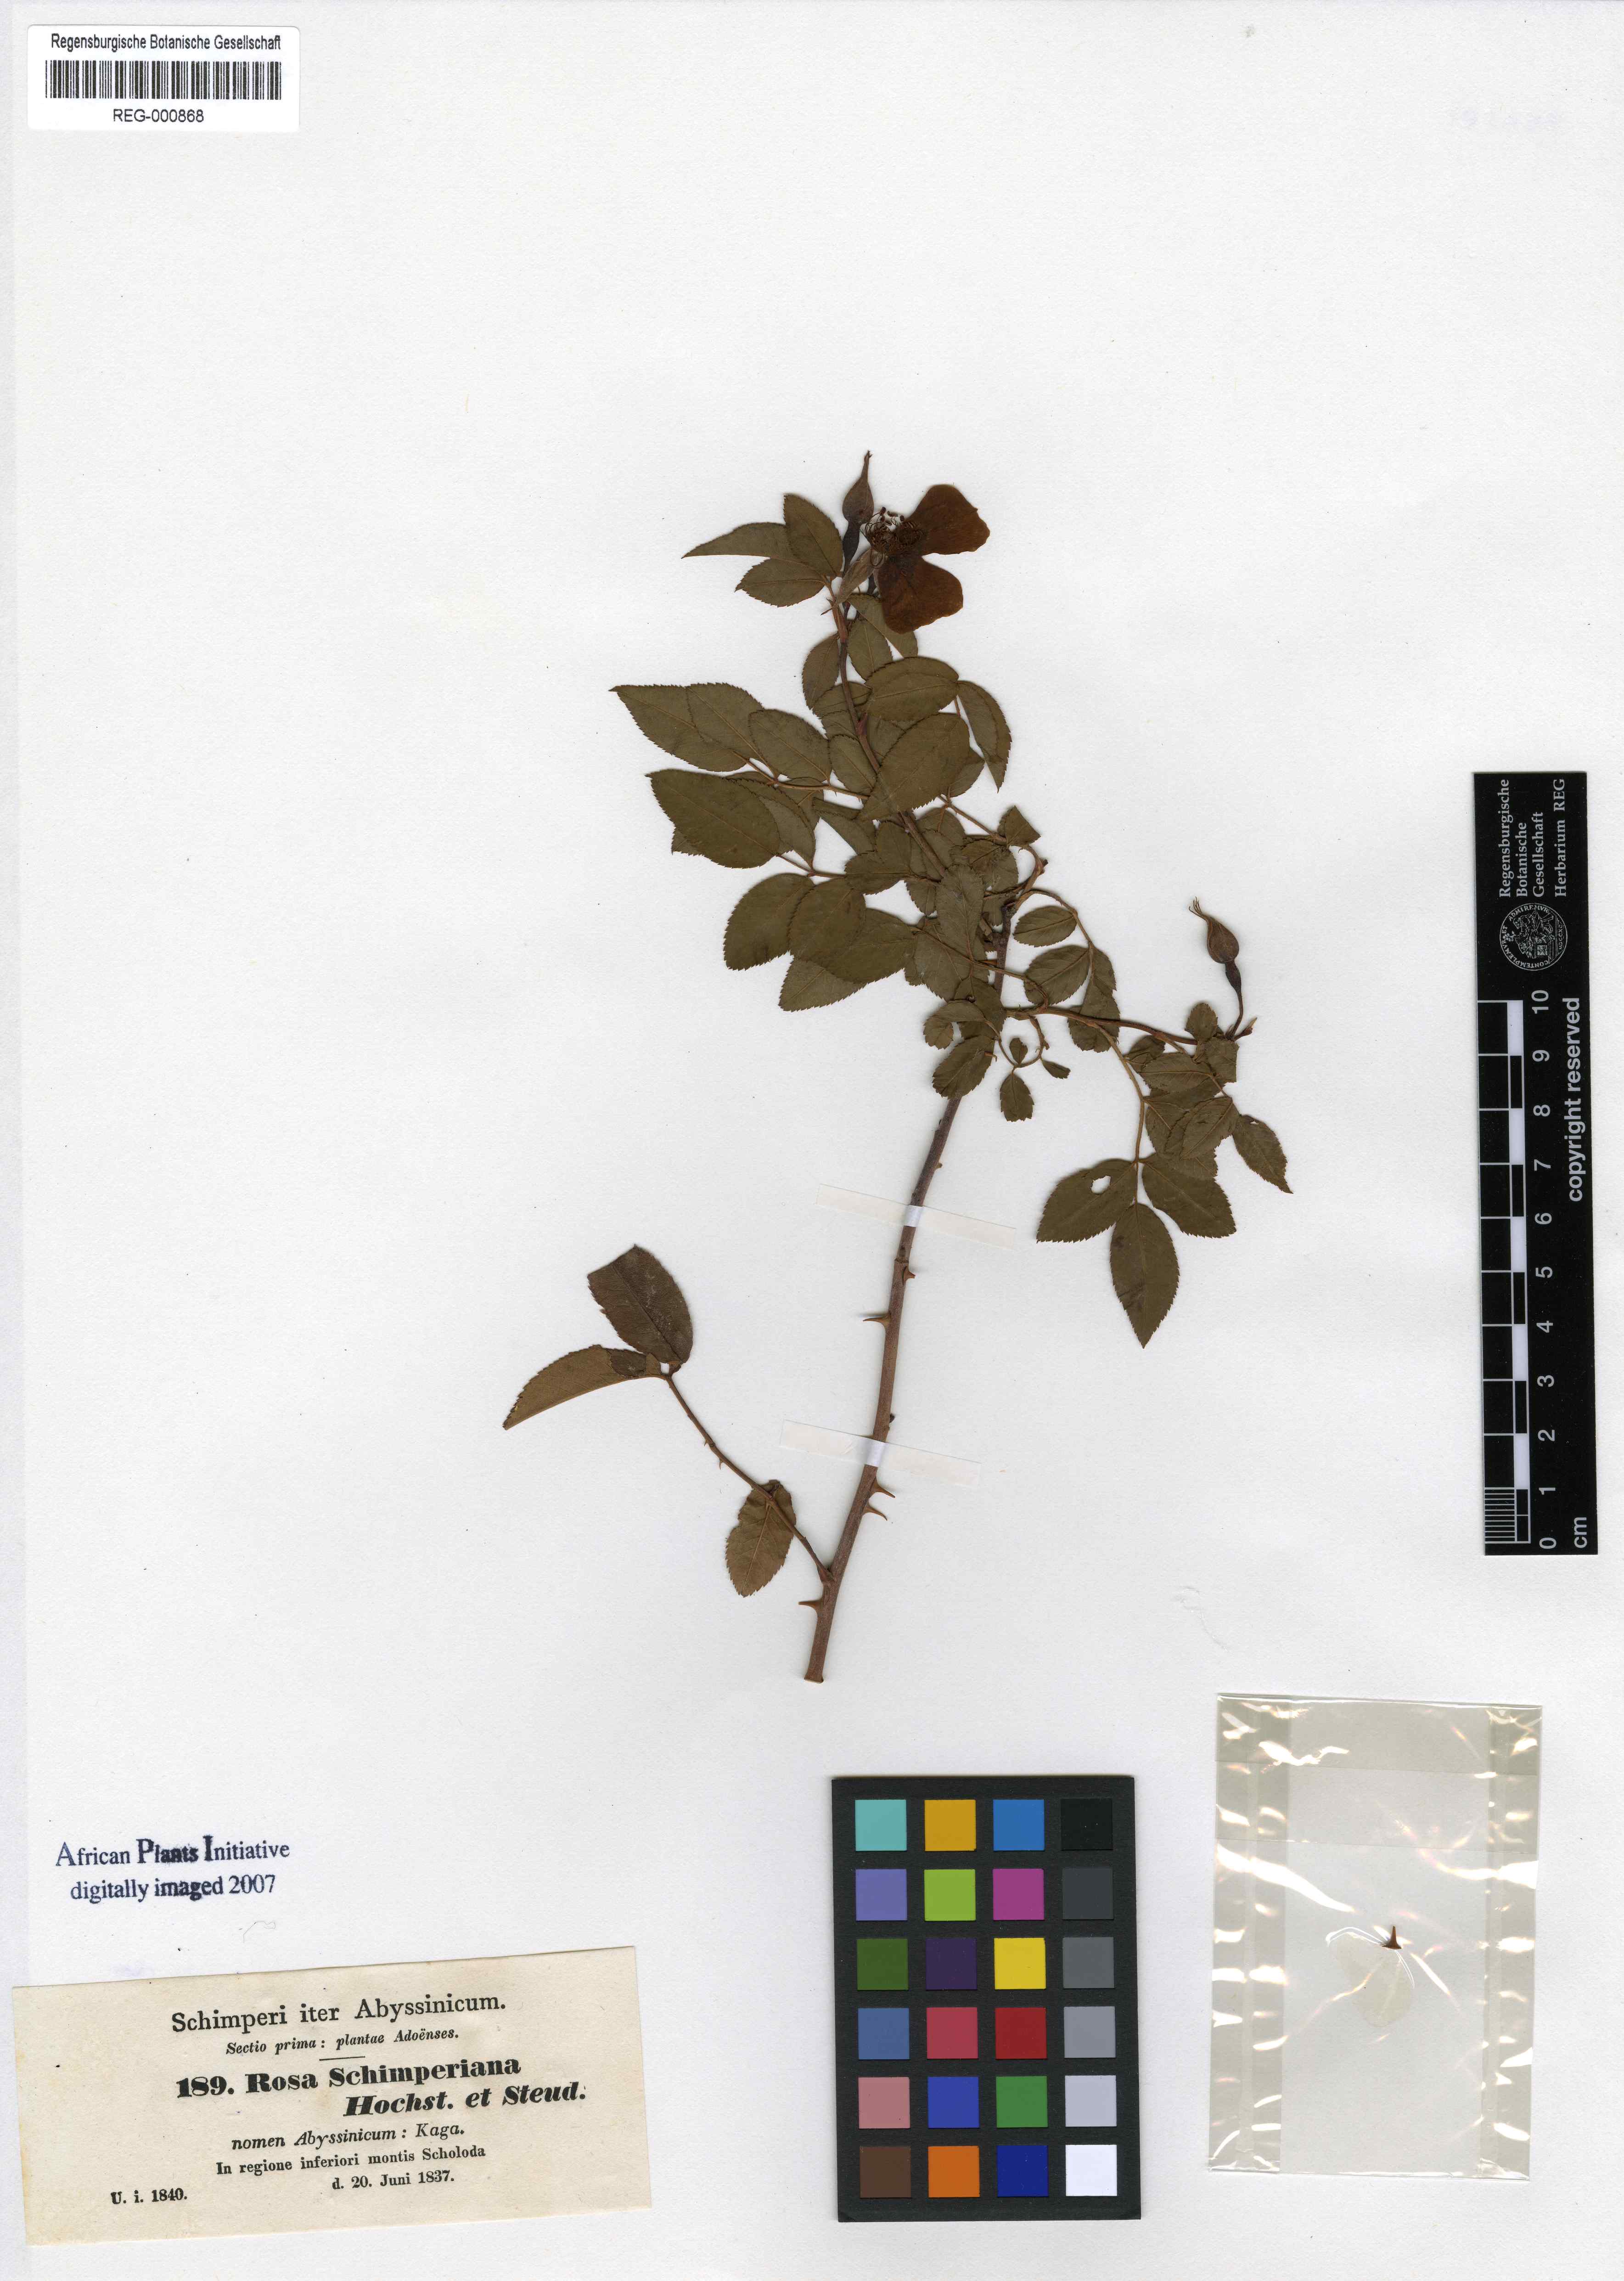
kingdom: Plantae
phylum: Tracheophyta
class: Magnoliopsida
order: Rosales
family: Rosaceae
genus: Rosa
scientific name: Rosa abyssinica
